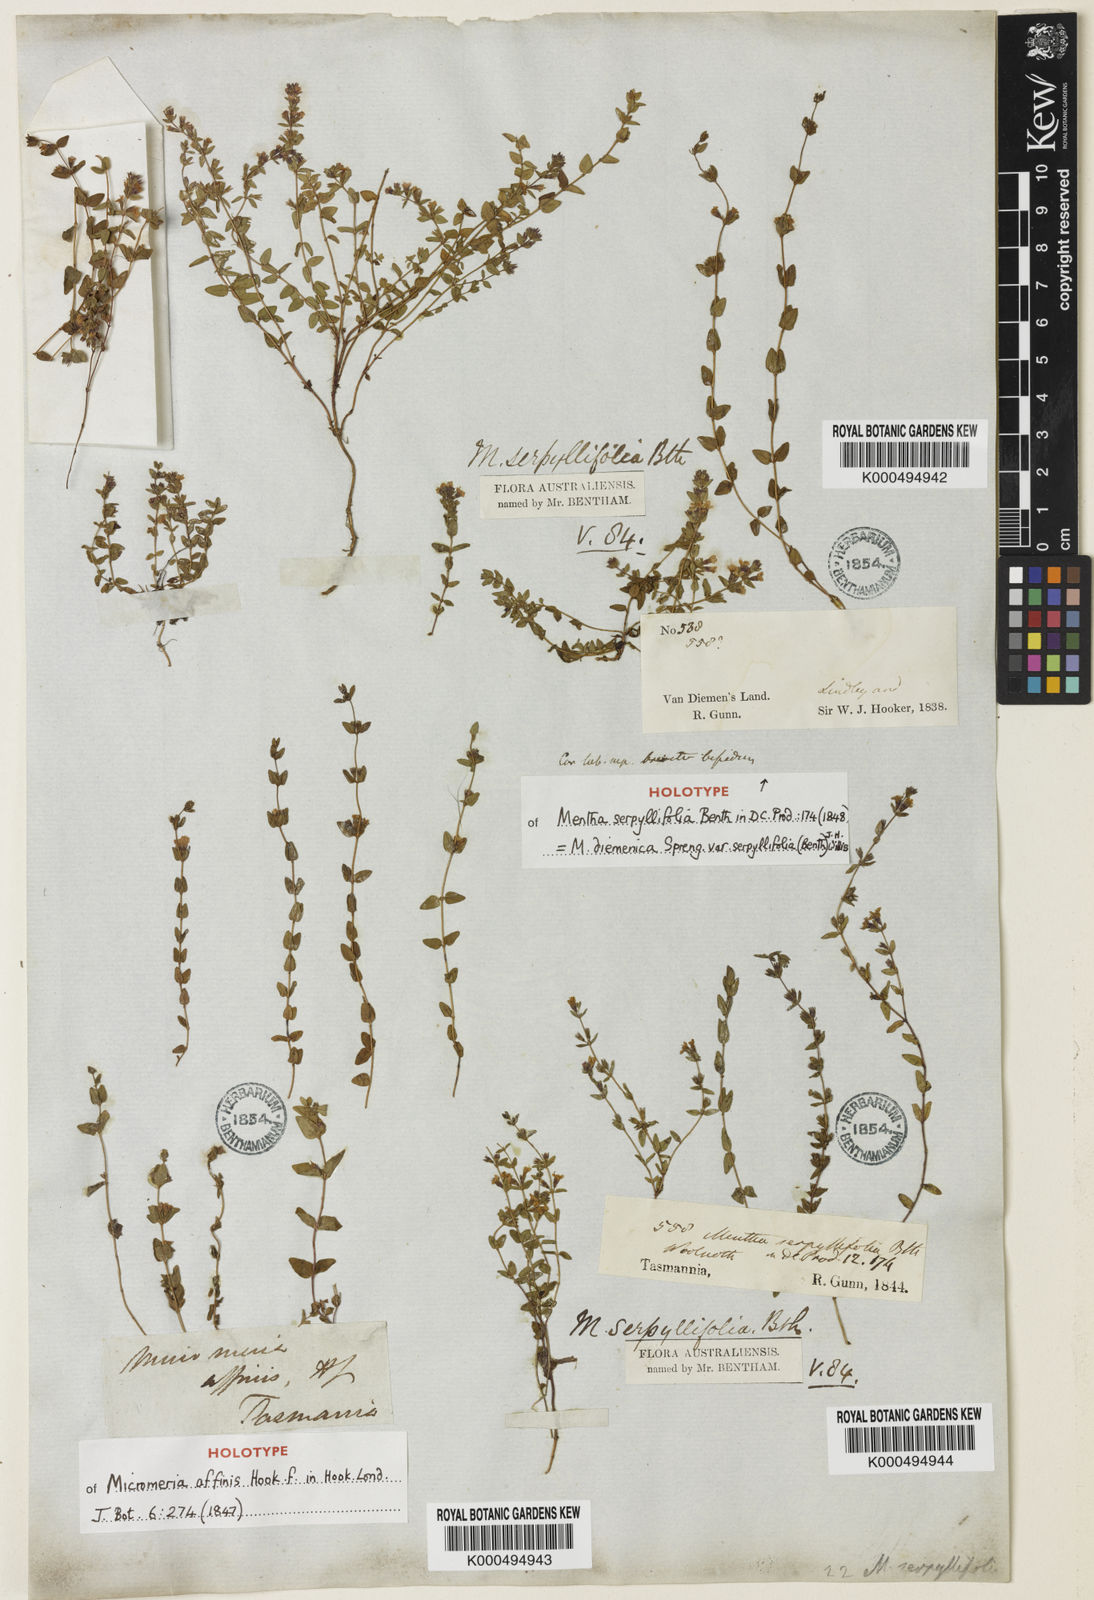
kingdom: Plantae
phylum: Tracheophyta
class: Magnoliopsida
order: Lamiales
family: Lamiaceae
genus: Mentha
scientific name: Mentha diemenica
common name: Wild mint
